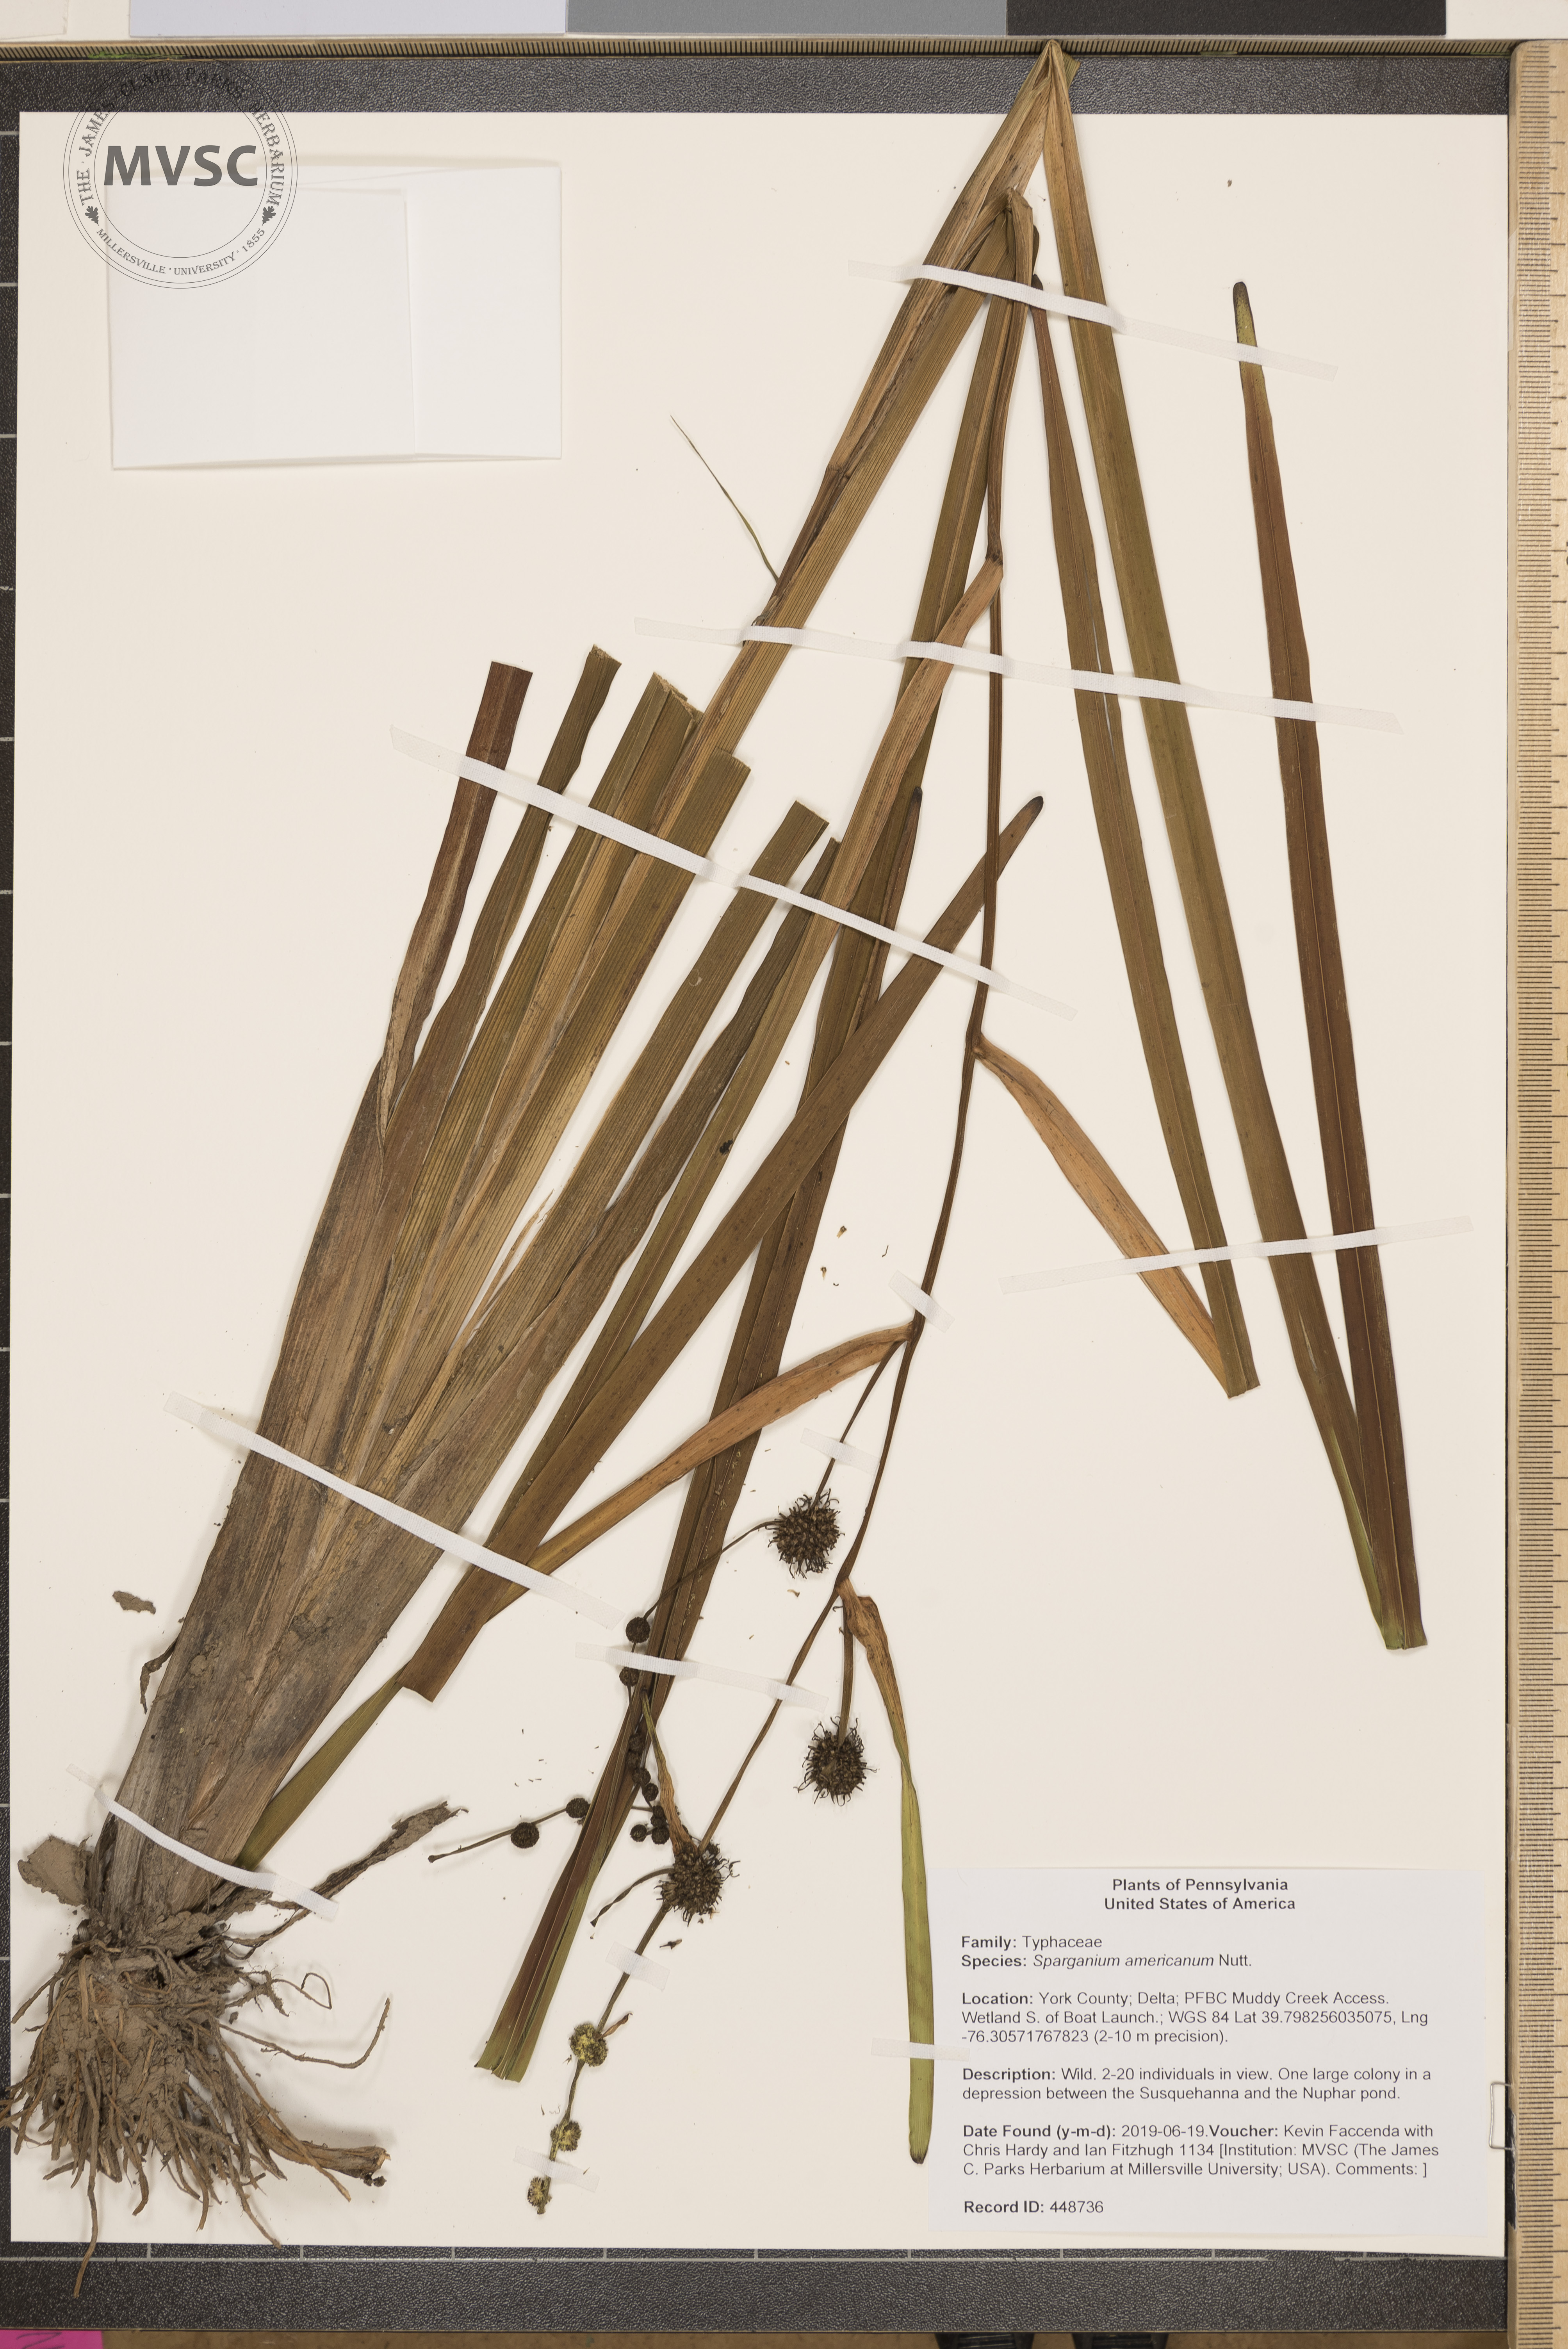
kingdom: Plantae
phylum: Tracheophyta
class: Liliopsida
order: Poales
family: Typhaceae
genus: Sparganium
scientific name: Sparganium americanum
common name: American burreed
